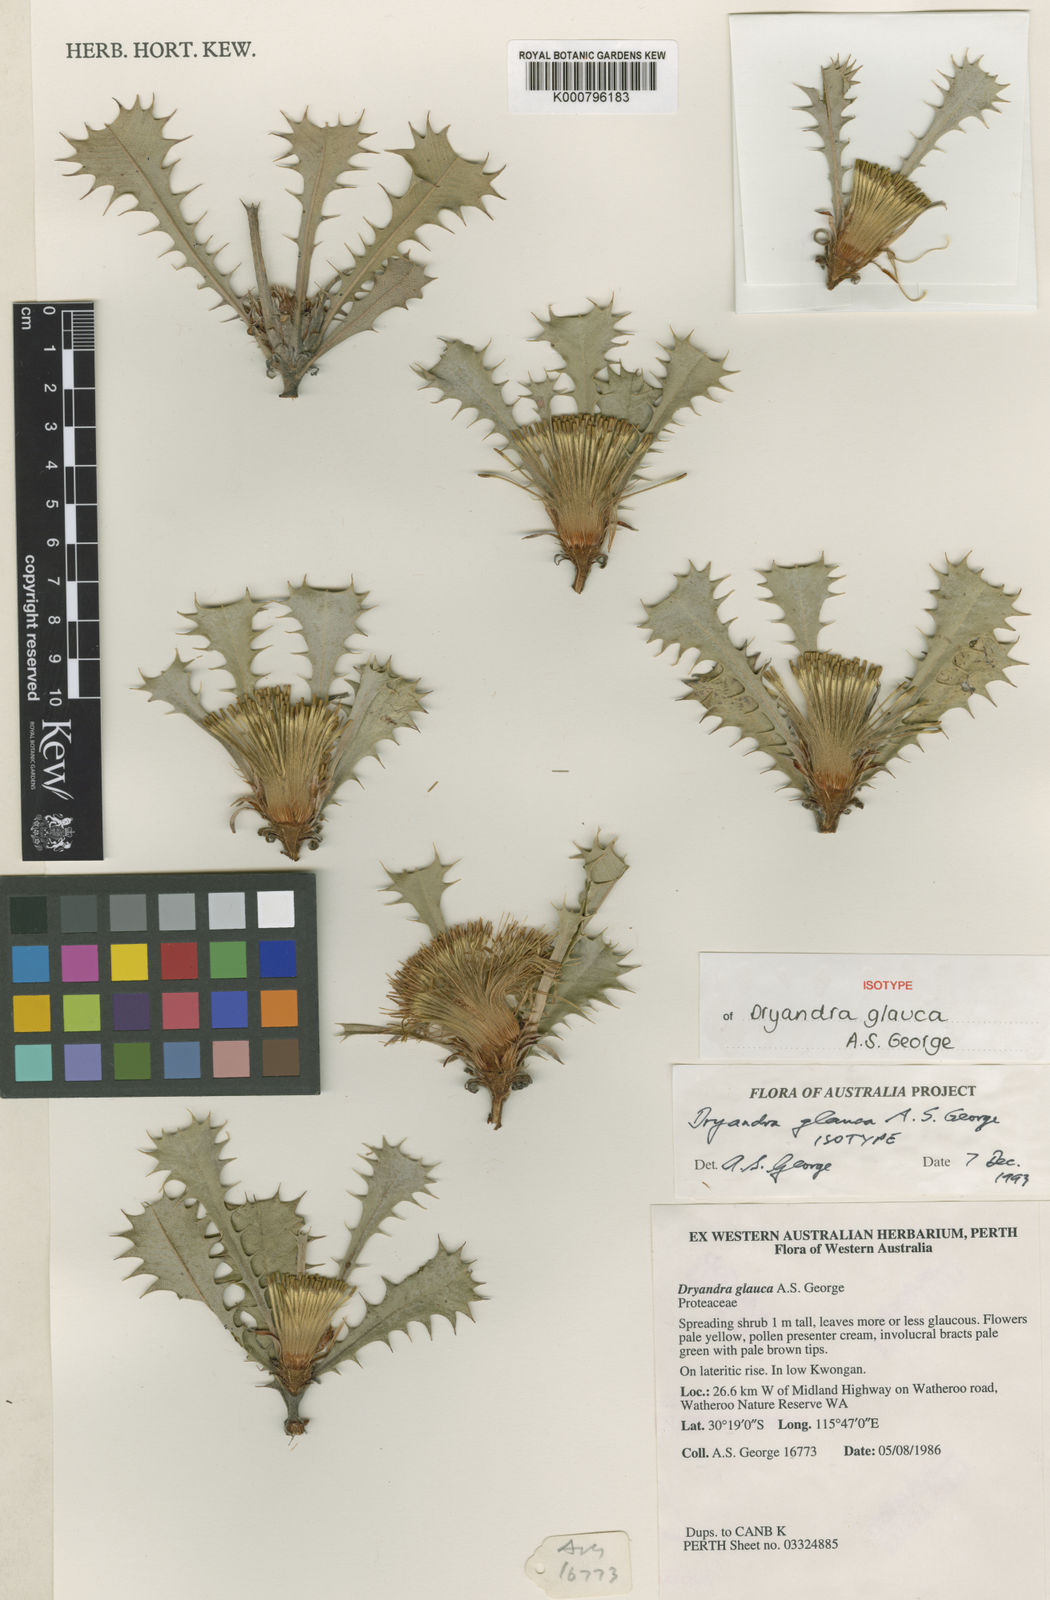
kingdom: Plantae
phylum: Tracheophyta
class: Magnoliopsida
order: Proteales
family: Proteaceae
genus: Banksia
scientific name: Banksia glaucifolia
